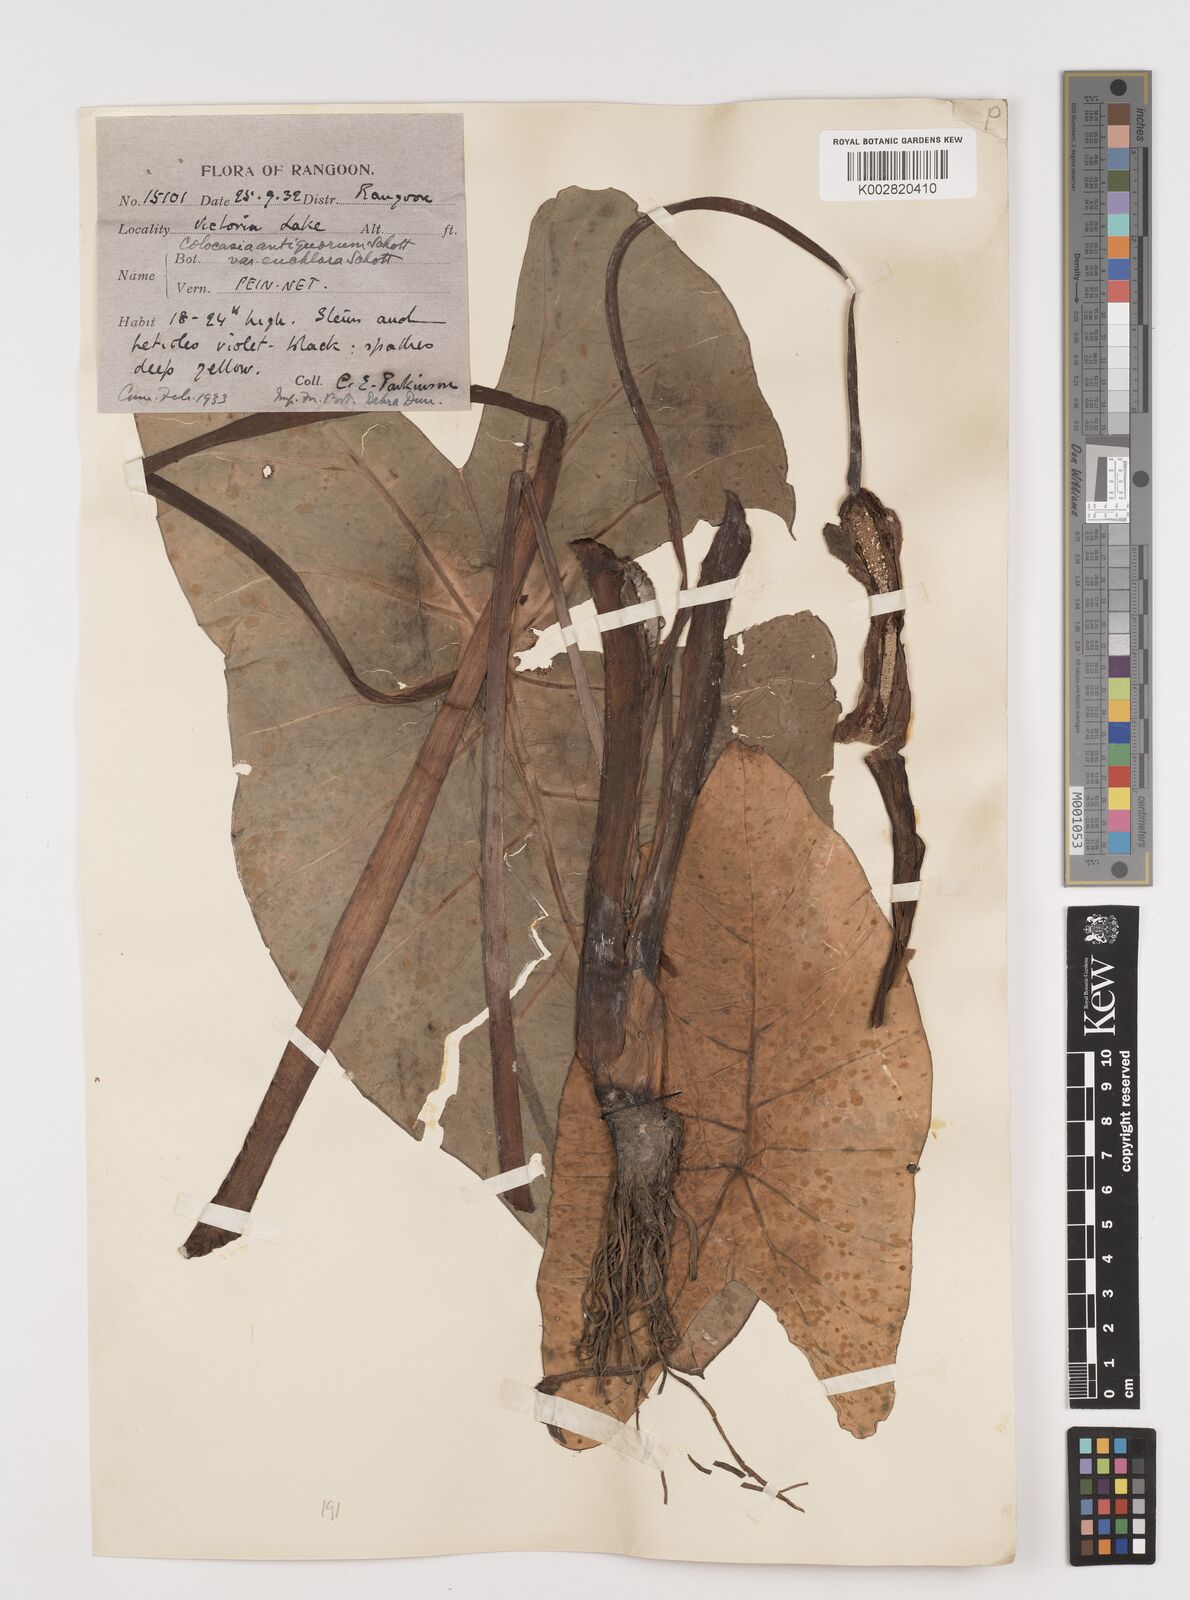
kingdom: Plantae
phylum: Tracheophyta
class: Liliopsida
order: Alismatales
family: Araceae
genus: Colocasia
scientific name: Colocasia esculenta
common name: Taro
